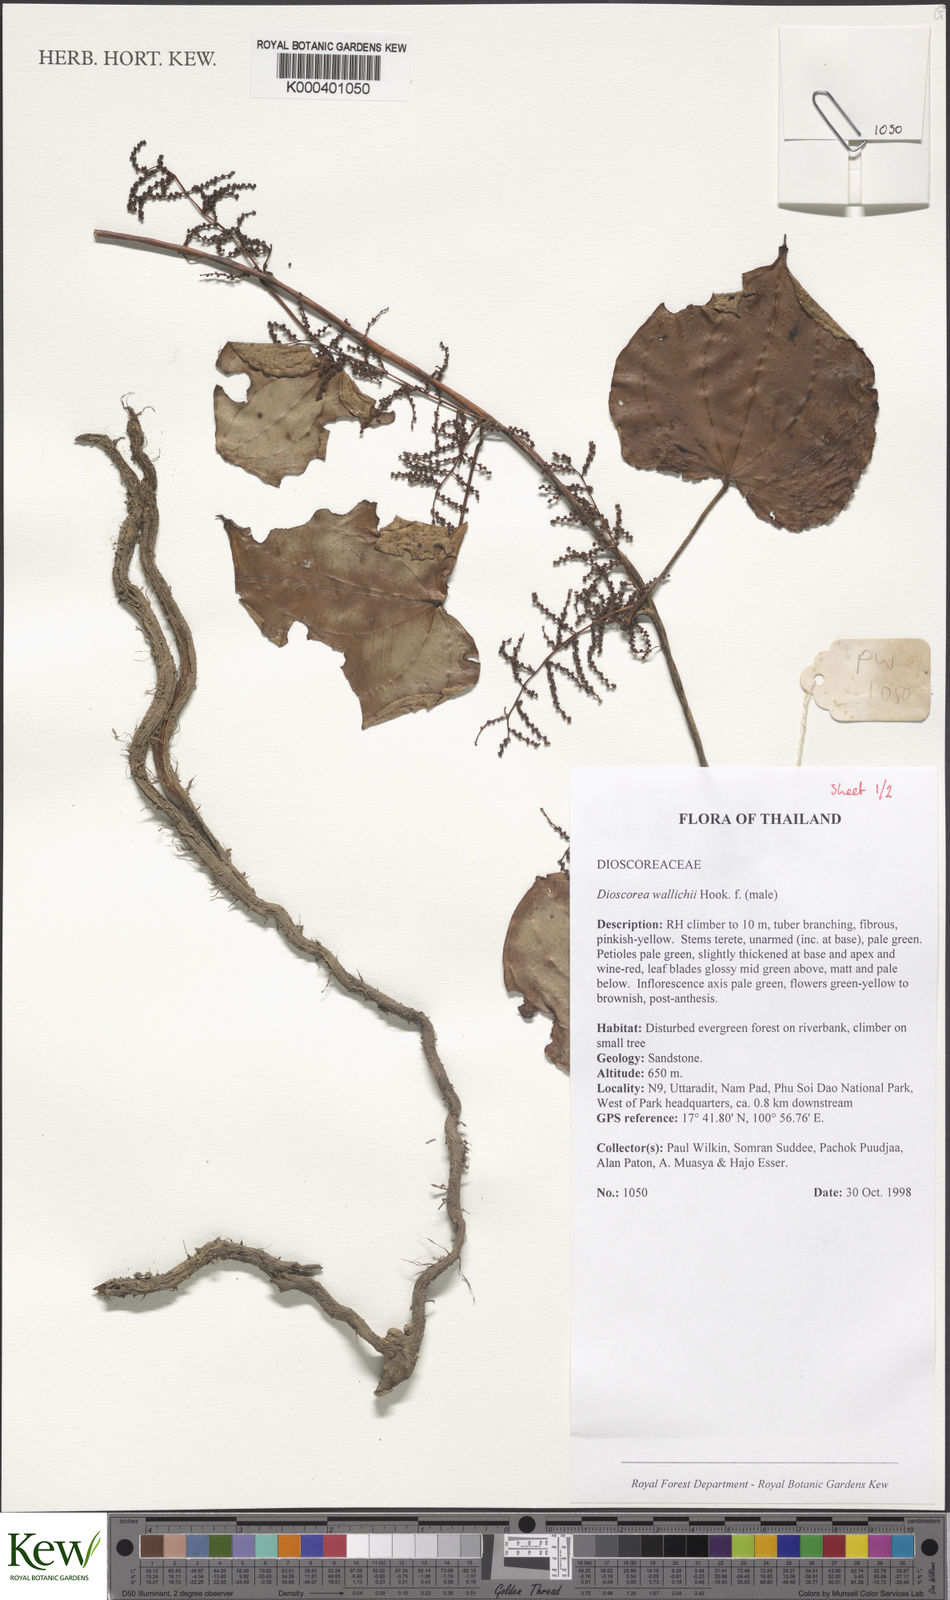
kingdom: Plantae
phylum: Tracheophyta
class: Liliopsida
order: Dioscoreales
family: Dioscoreaceae
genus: Dioscorea
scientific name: Dioscorea wallichii
